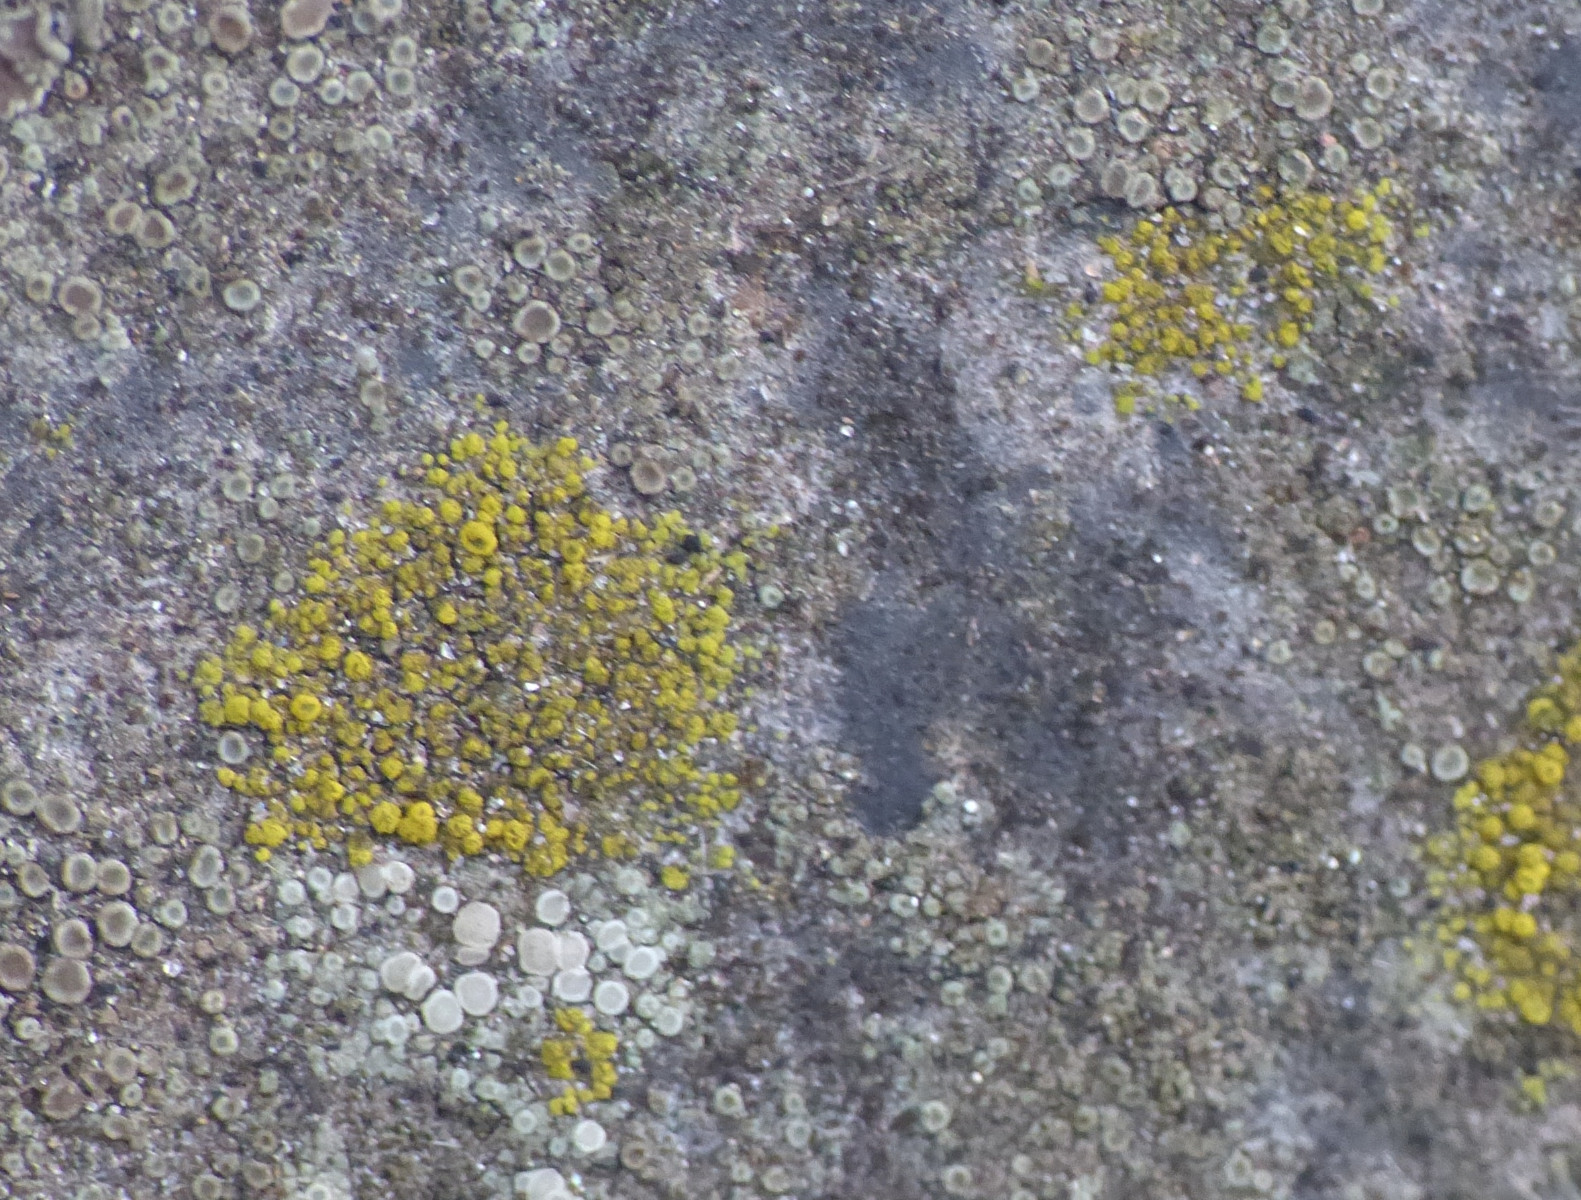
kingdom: Fungi
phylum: Ascomycota
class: Candelariomycetes
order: Candelariales
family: Candelariaceae
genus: Candelariella
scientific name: Candelariella vitellina
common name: almindelig æggeblommelav
